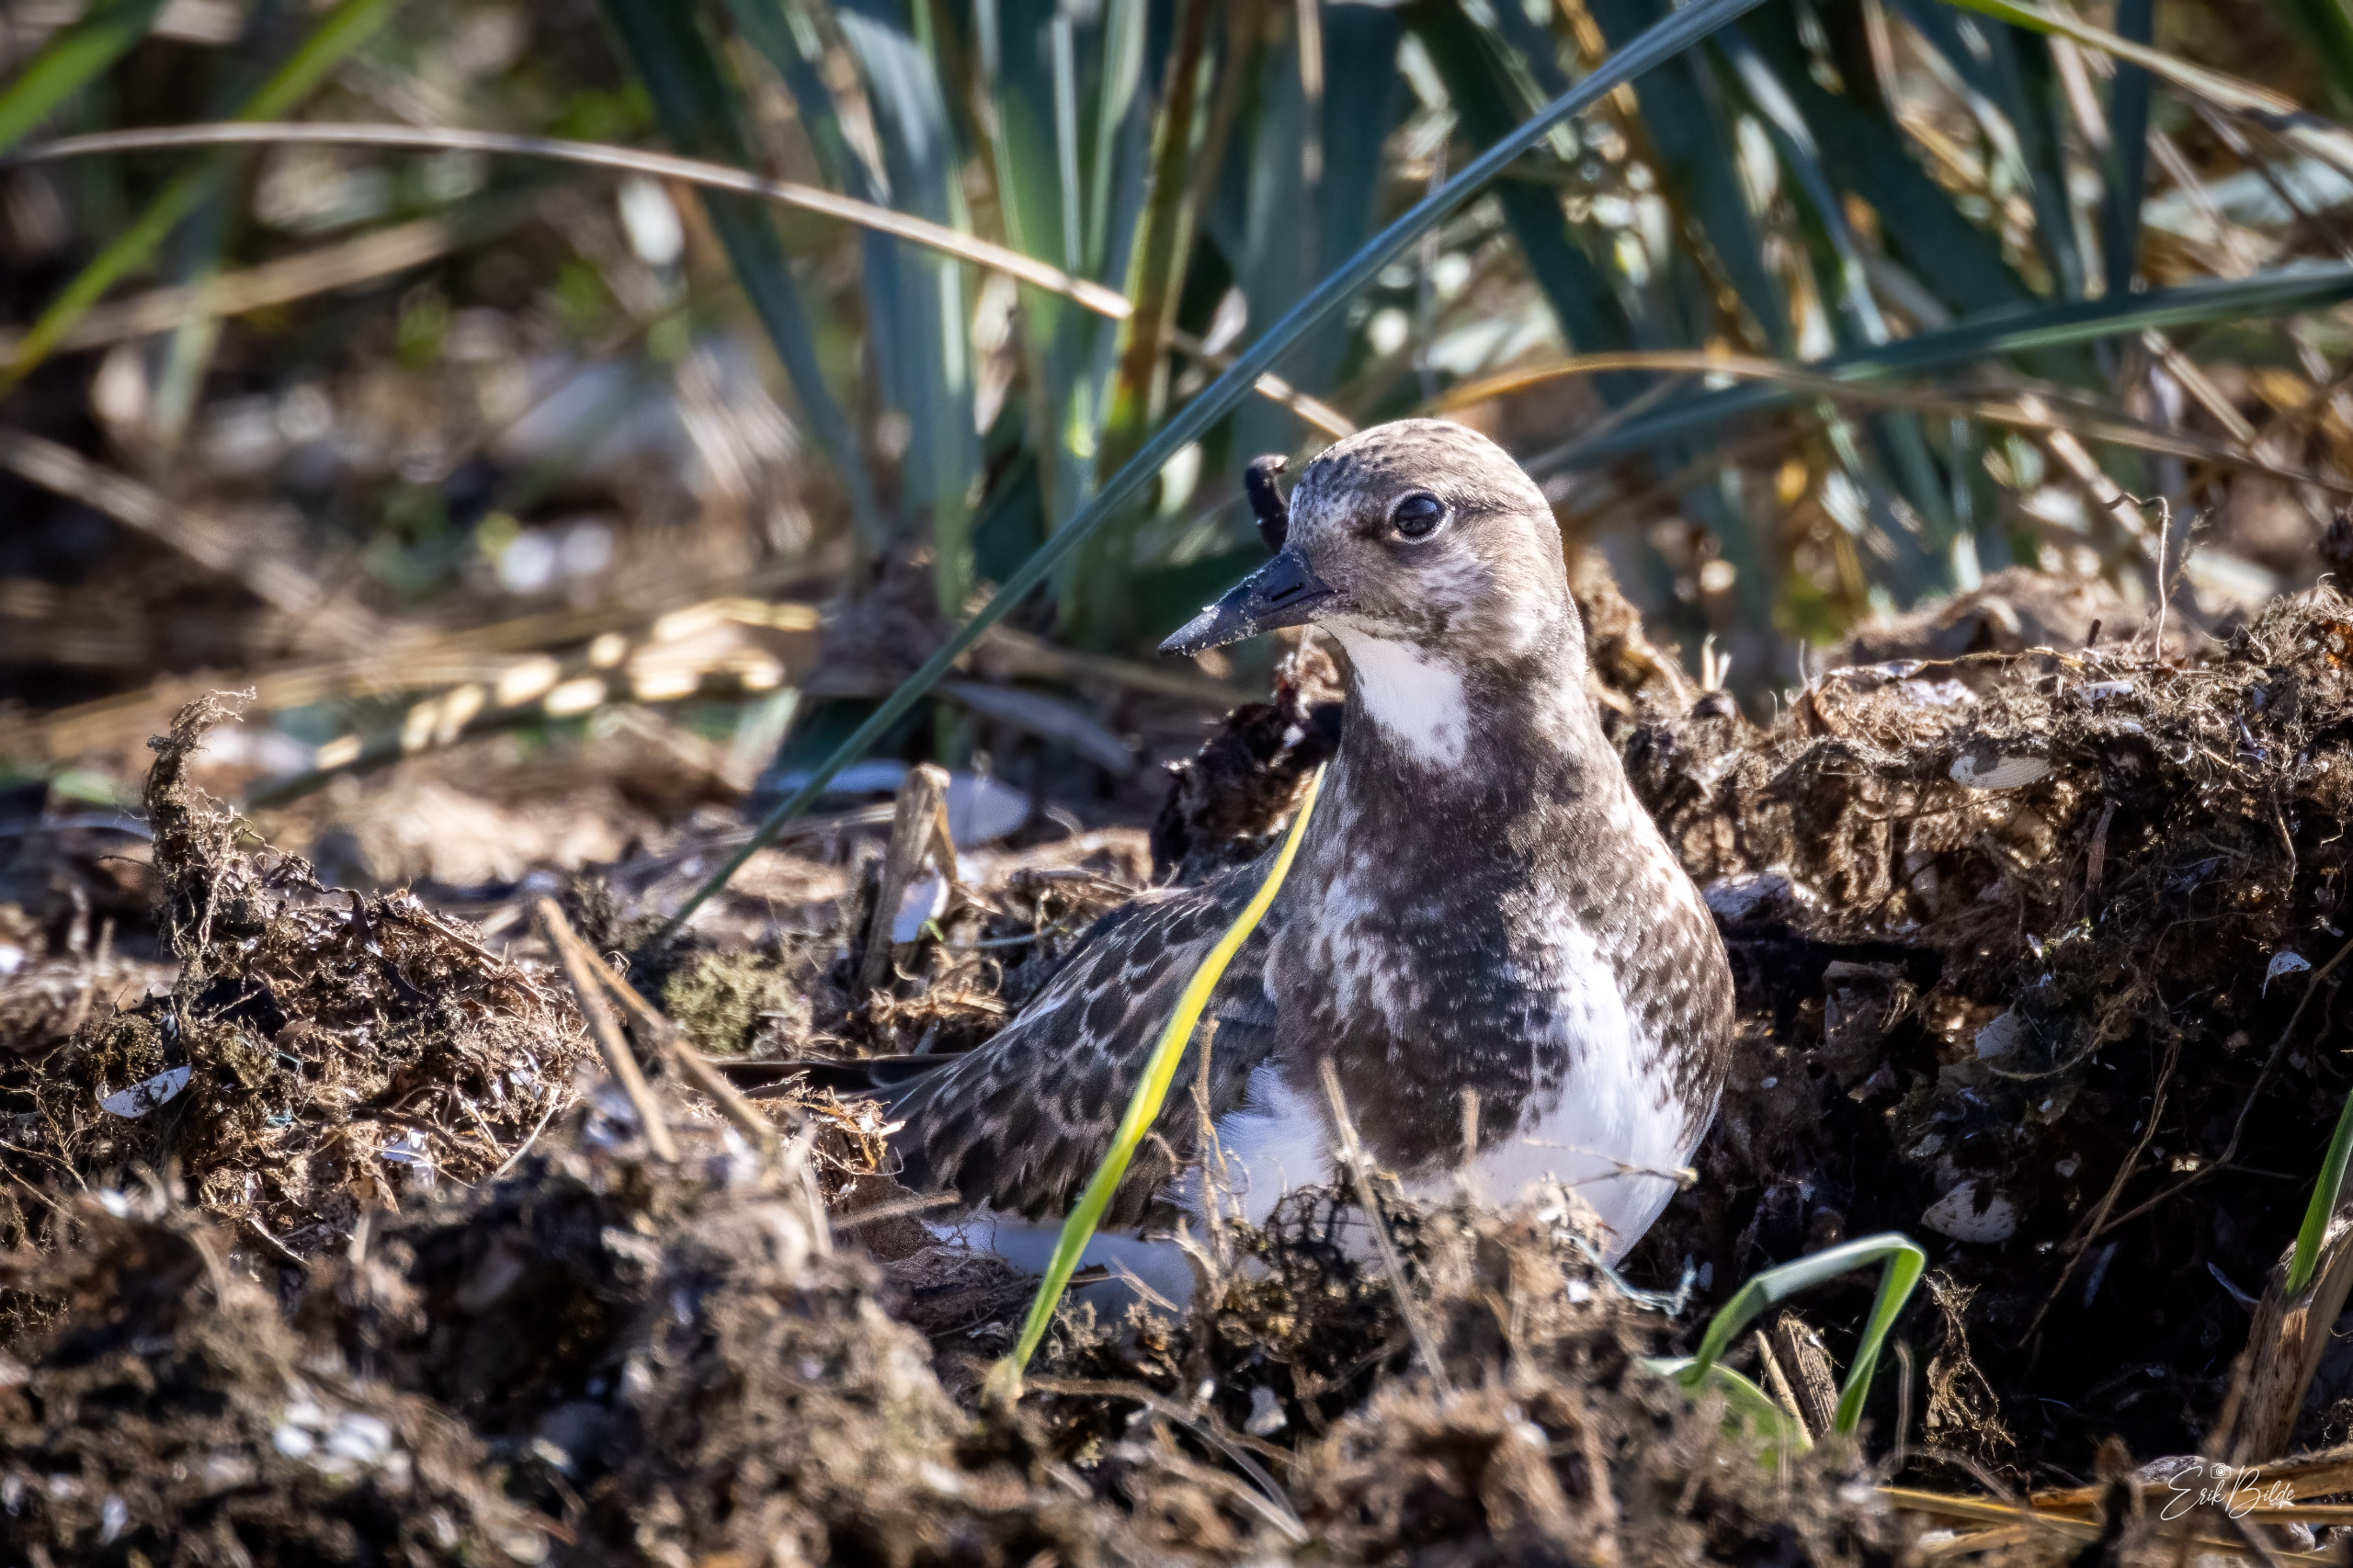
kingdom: Animalia
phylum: Chordata
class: Aves
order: Charadriiformes
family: Scolopacidae
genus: Arenaria
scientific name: Arenaria interpres
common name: Stenvender
